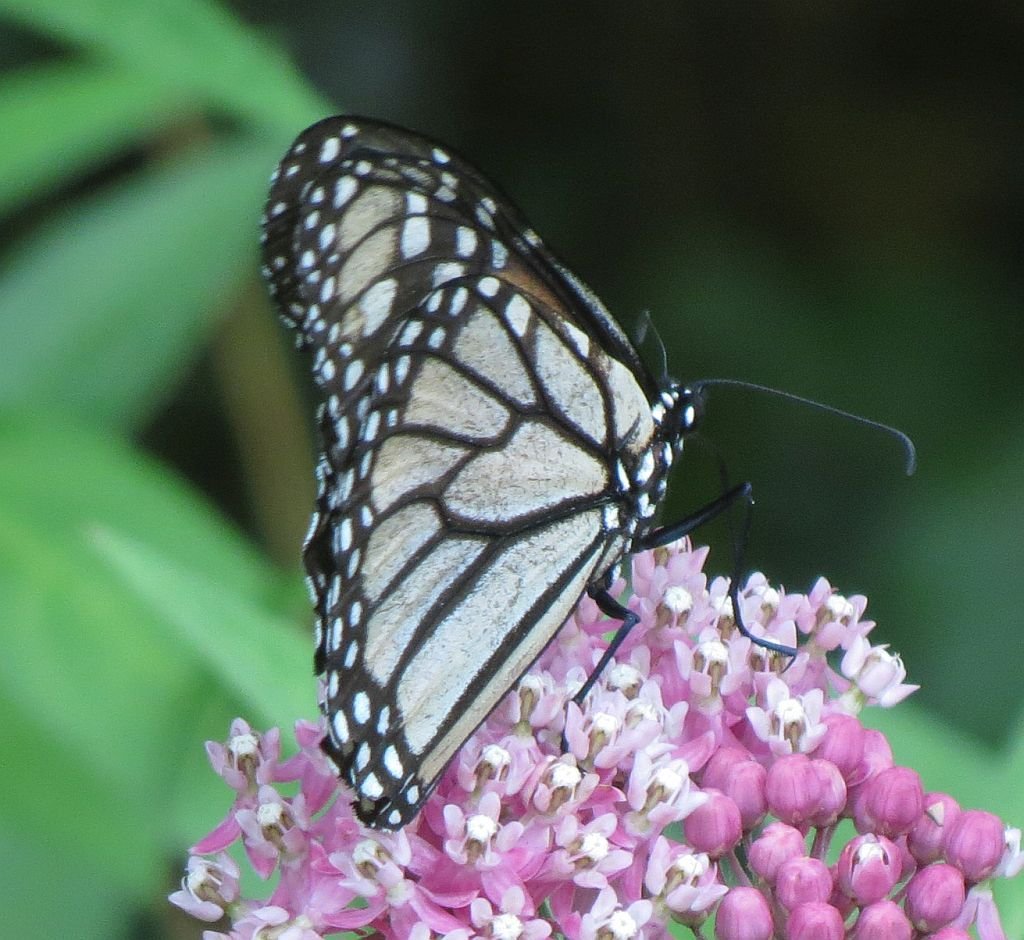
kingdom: Animalia
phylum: Arthropoda
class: Insecta
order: Lepidoptera
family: Nymphalidae
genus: Danaus
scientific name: Danaus plexippus
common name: Monarch
